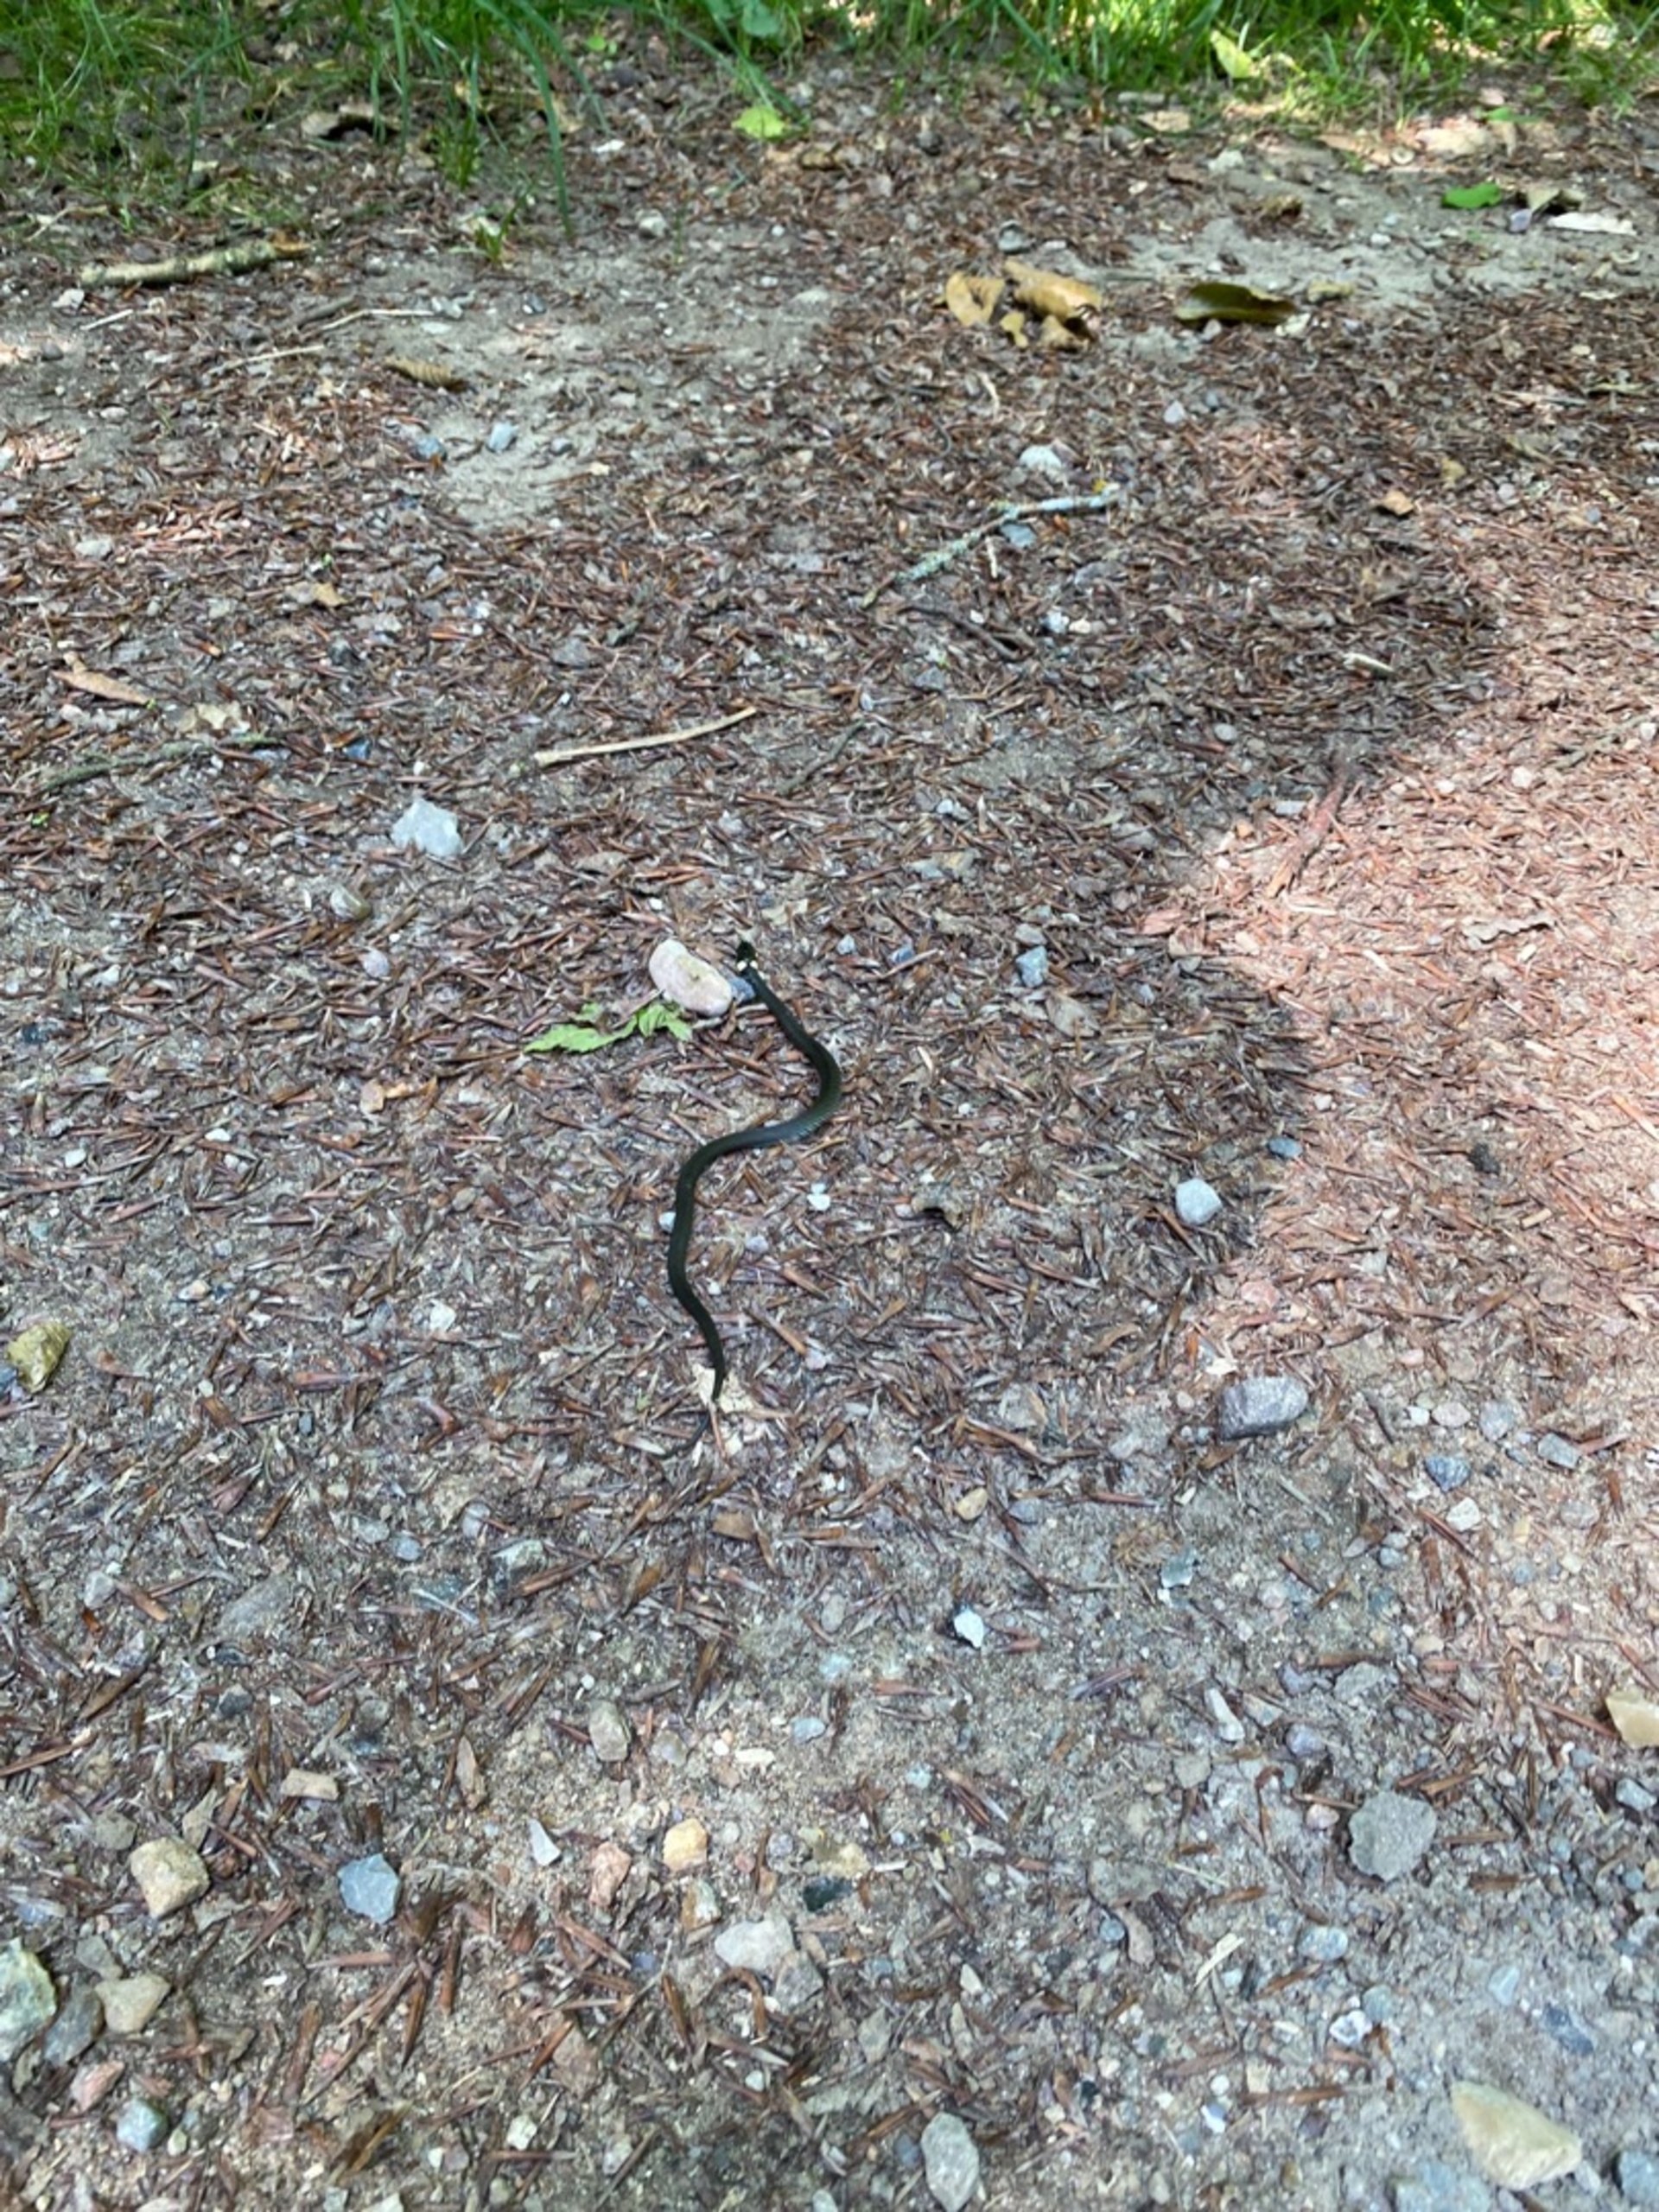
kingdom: Animalia
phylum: Chordata
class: Squamata
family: Colubridae
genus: Natrix
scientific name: Natrix natrix
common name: Snog
